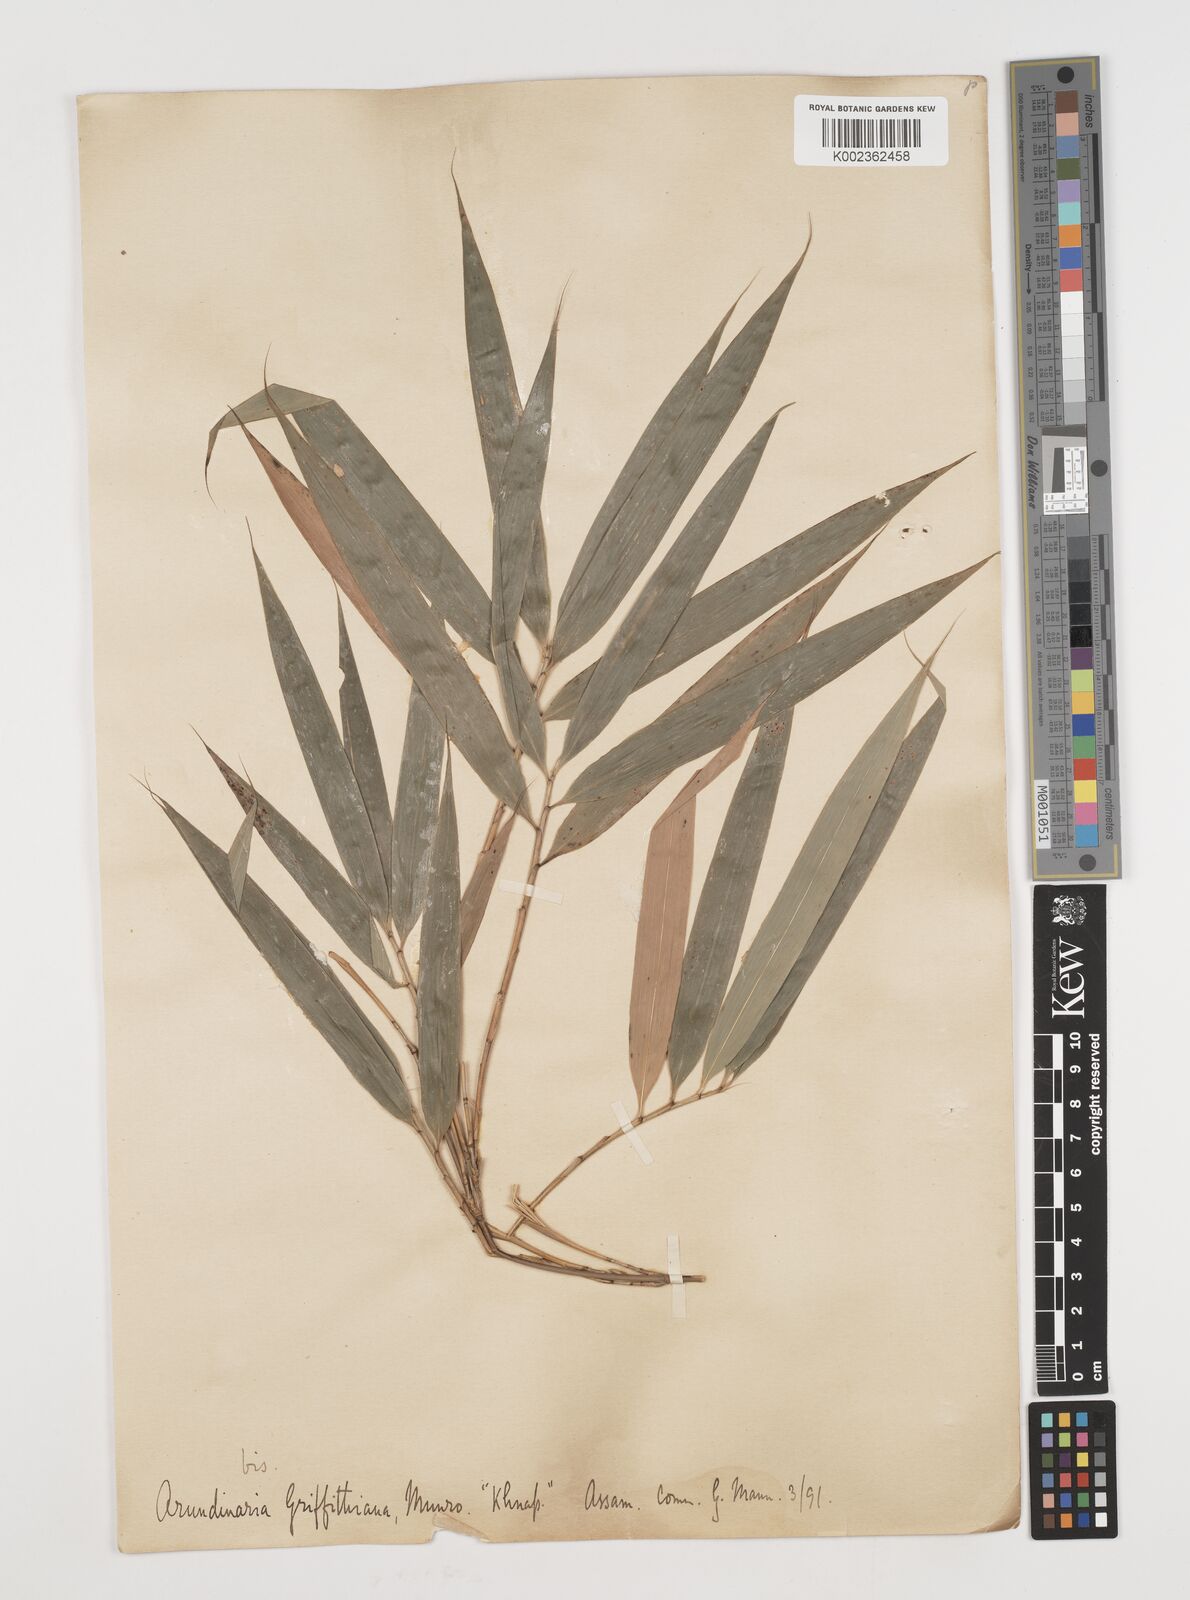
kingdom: Plantae
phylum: Tracheophyta
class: Liliopsida
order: Poales
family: Poaceae
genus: Chimonocalamus
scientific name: Chimonocalamus griffithianus
